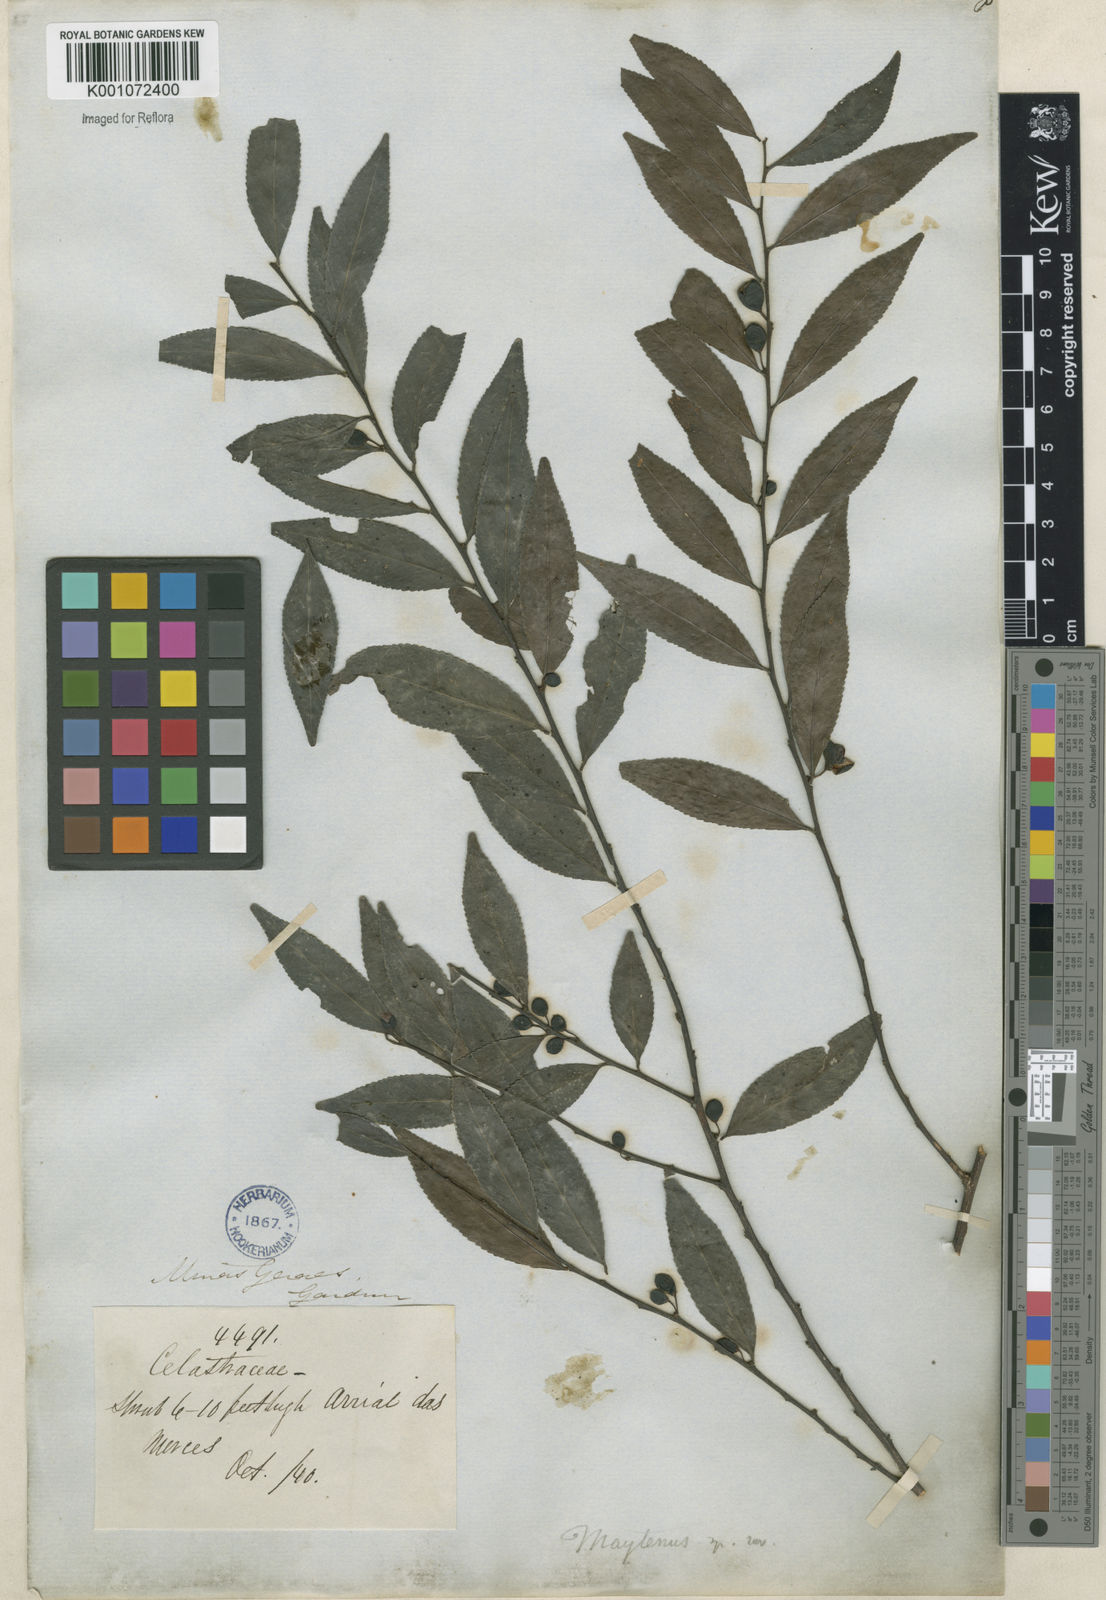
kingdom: Plantae
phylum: Tracheophyta
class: Magnoliopsida
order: Celastrales
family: Celastraceae
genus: Maytenus
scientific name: Maytenus
